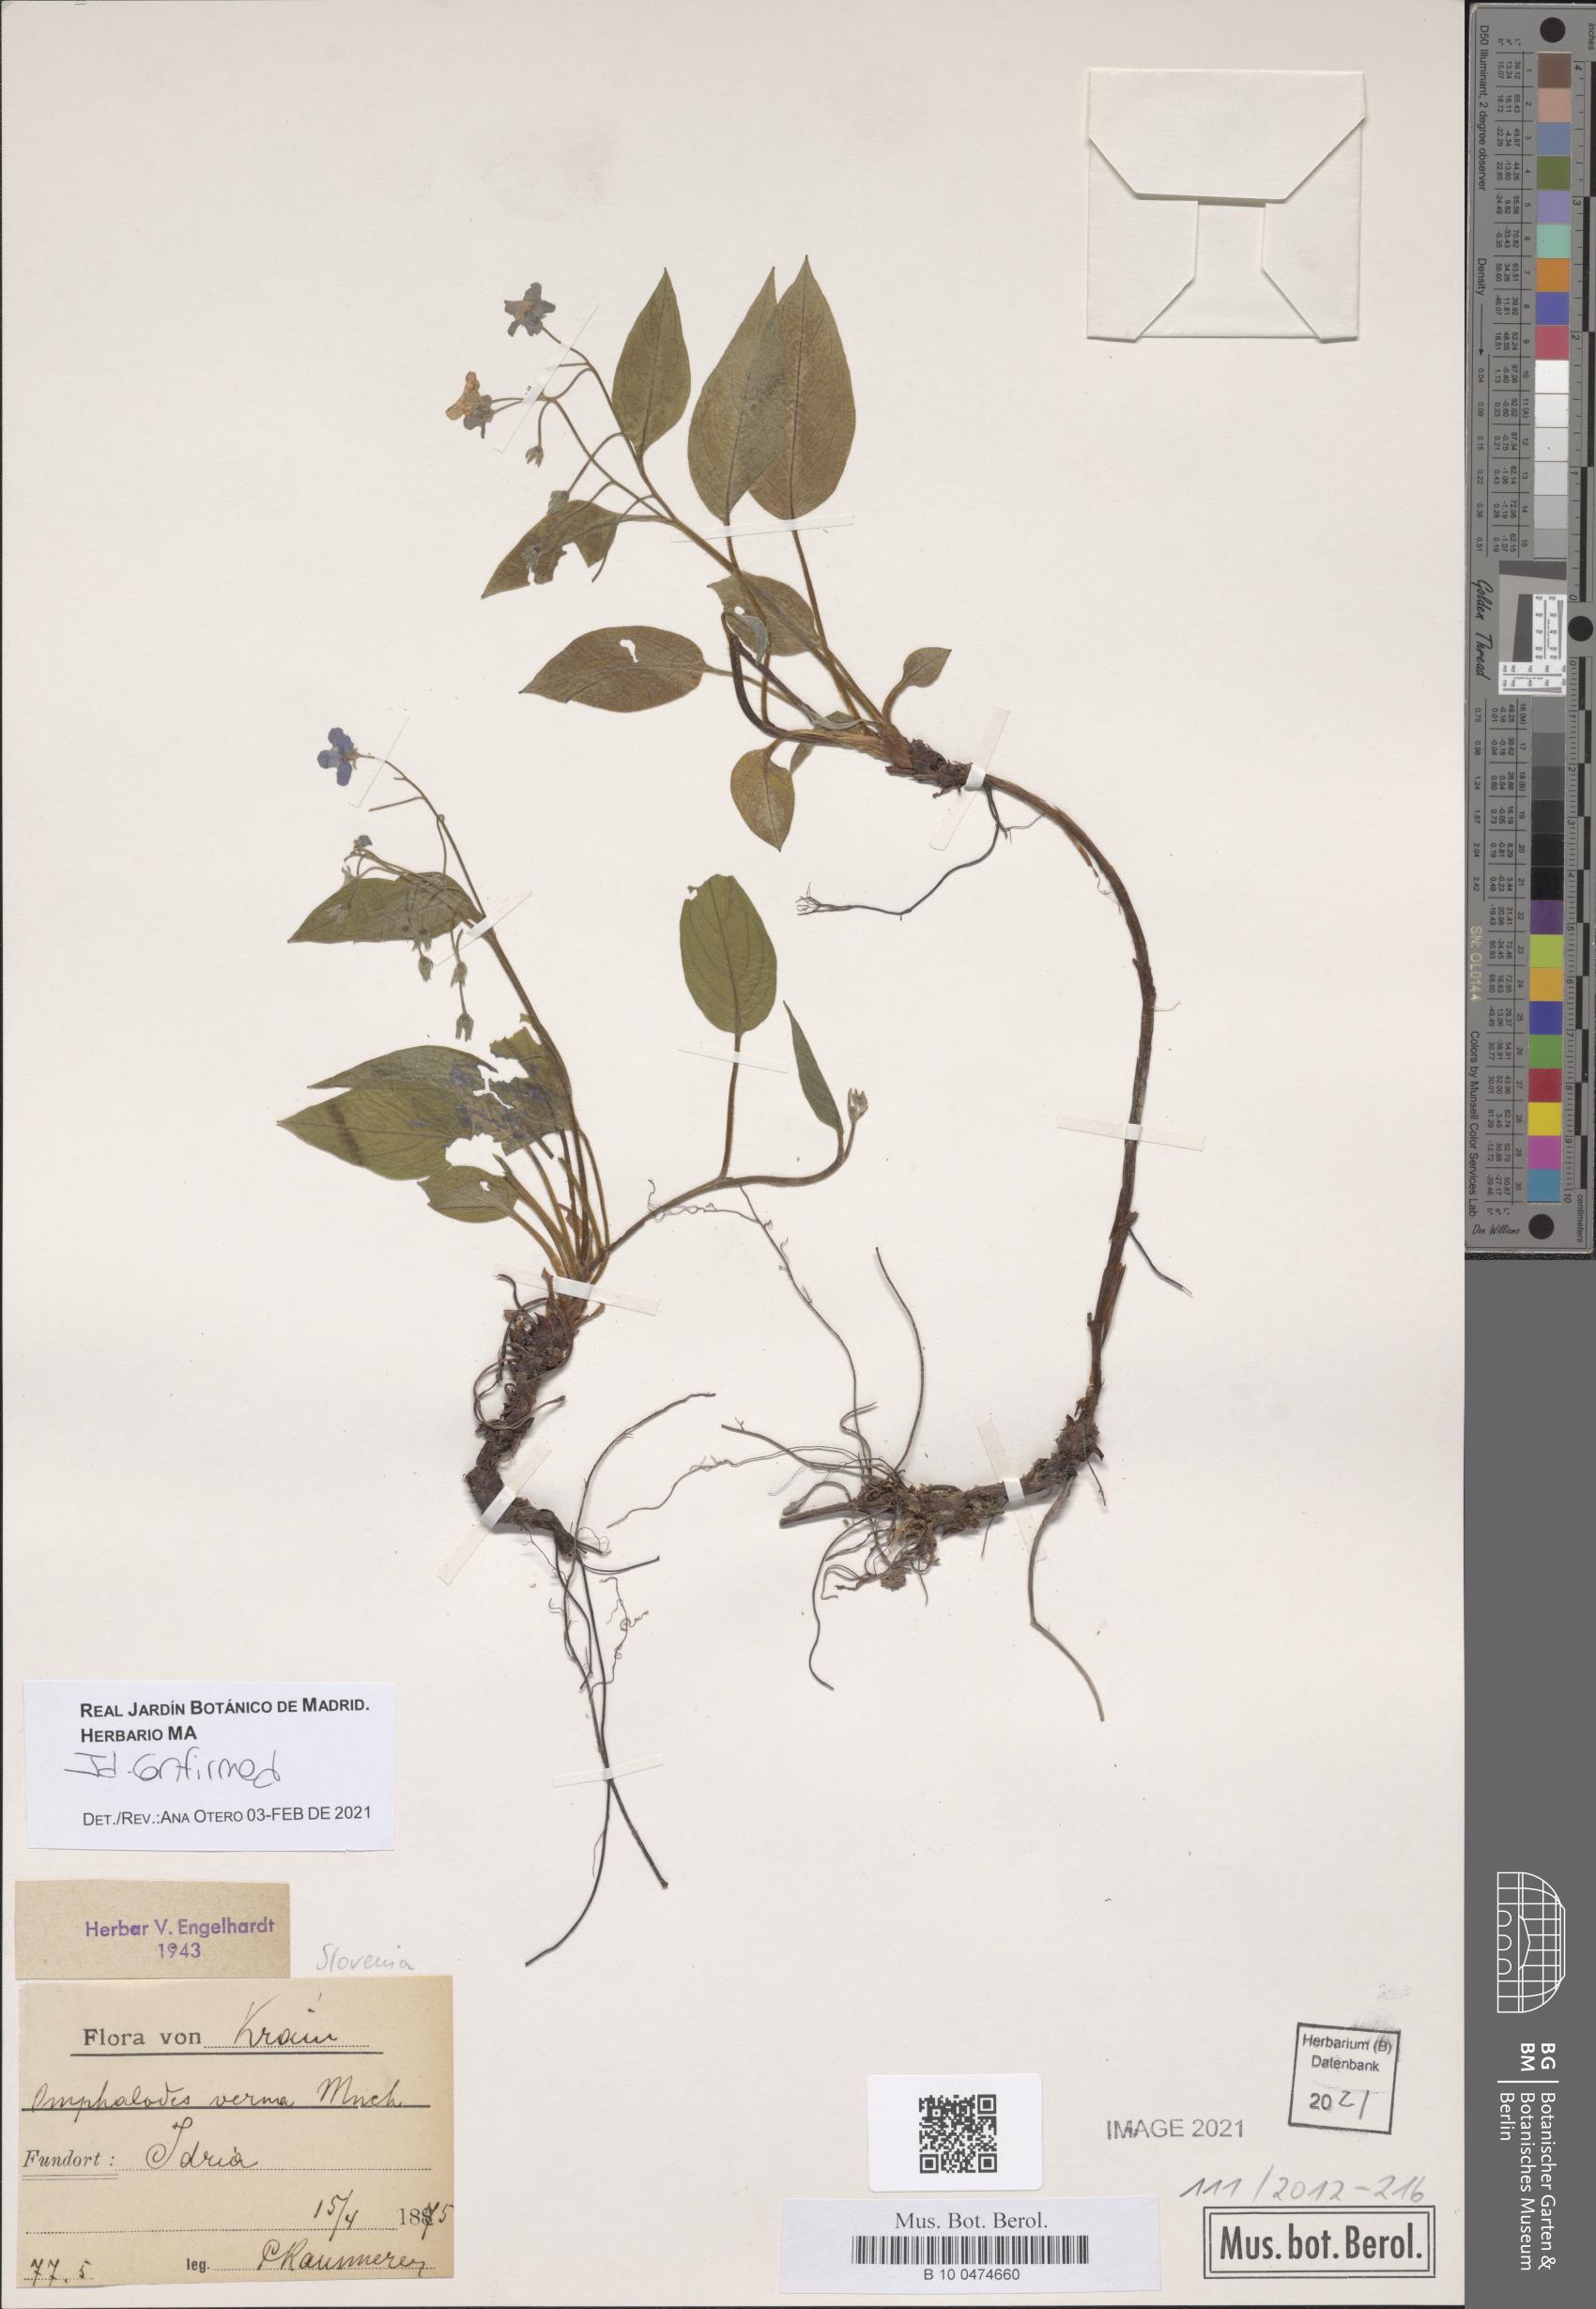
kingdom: Plantae
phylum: Tracheophyta
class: Magnoliopsida
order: Boraginales
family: Boraginaceae
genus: Omphalodes
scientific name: Omphalodes verna
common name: Blue-eyed-mary
